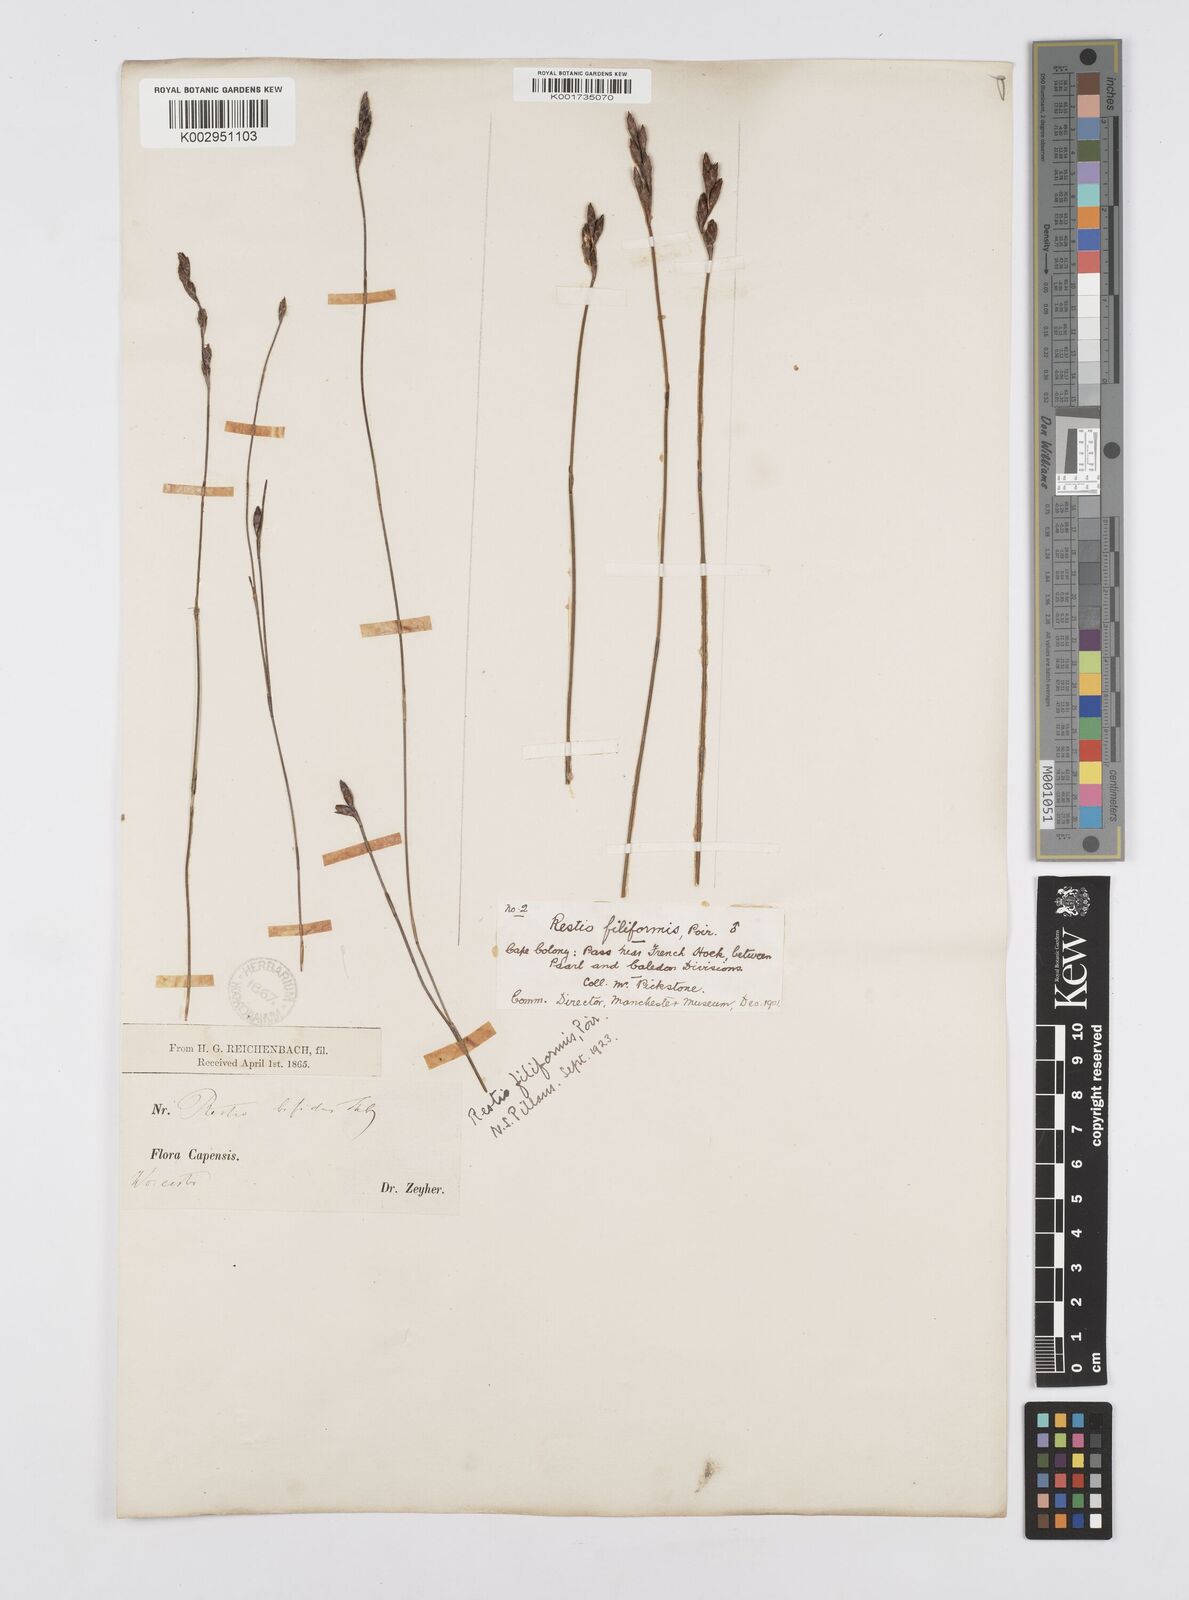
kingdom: Plantae
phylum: Tracheophyta
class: Liliopsida
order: Poales
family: Restionaceae
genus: Restio
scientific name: Restio filiformis
